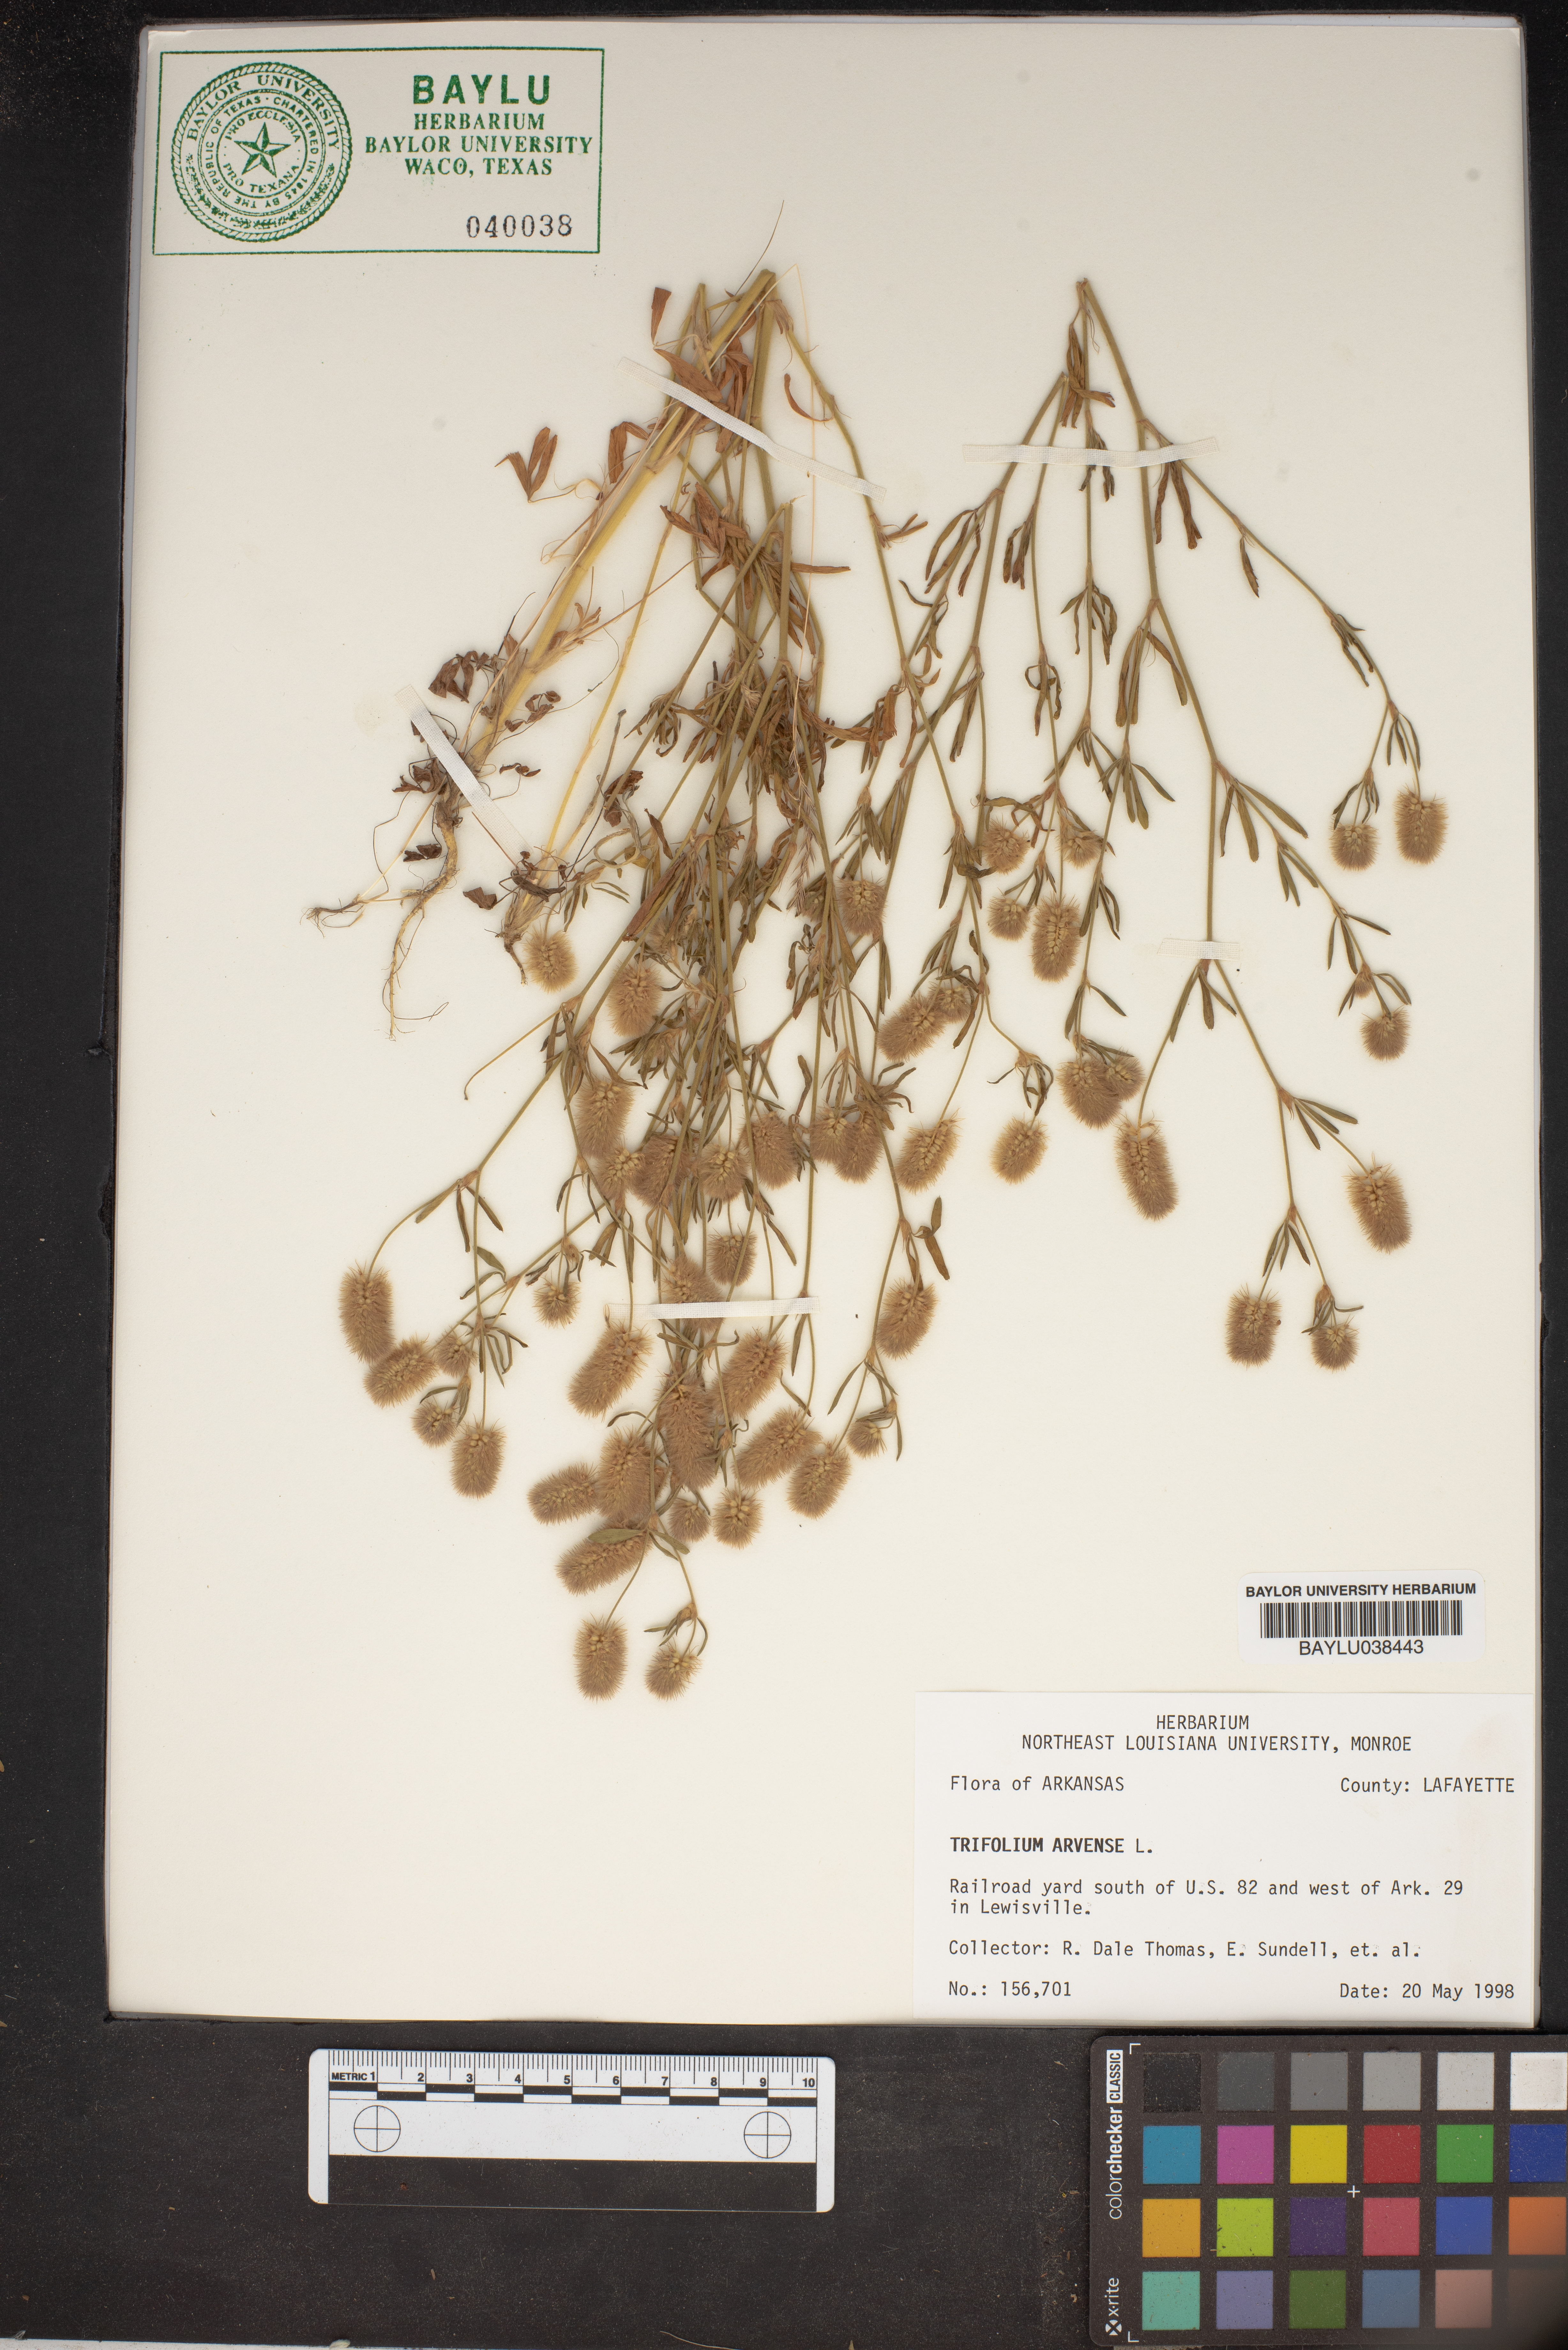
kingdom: Plantae
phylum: Tracheophyta
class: Magnoliopsida
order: Fabales
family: Fabaceae
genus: Trifolium
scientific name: Trifolium arvense
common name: Hare's-foot clover
